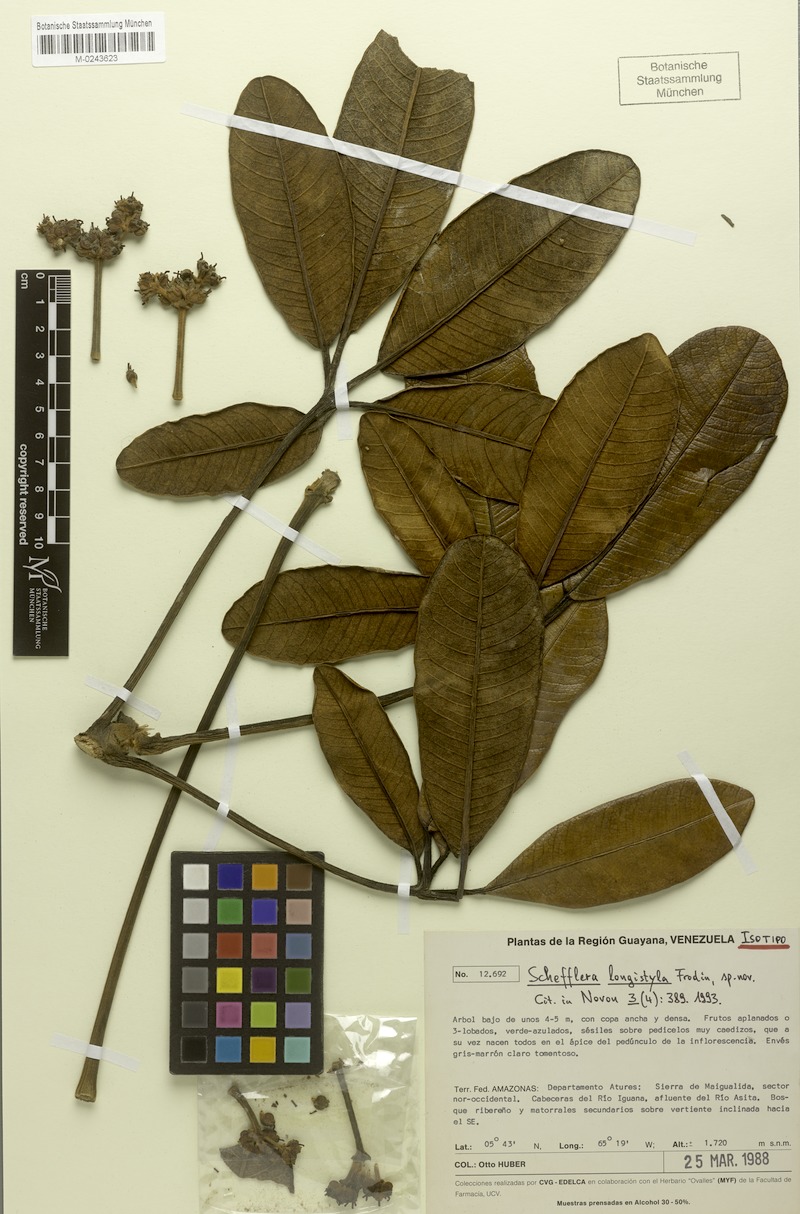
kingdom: Plantae
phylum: Tracheophyta
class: Magnoliopsida
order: Apiales
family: Araliaceae
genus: Crepinella
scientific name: Crepinella longistyla
